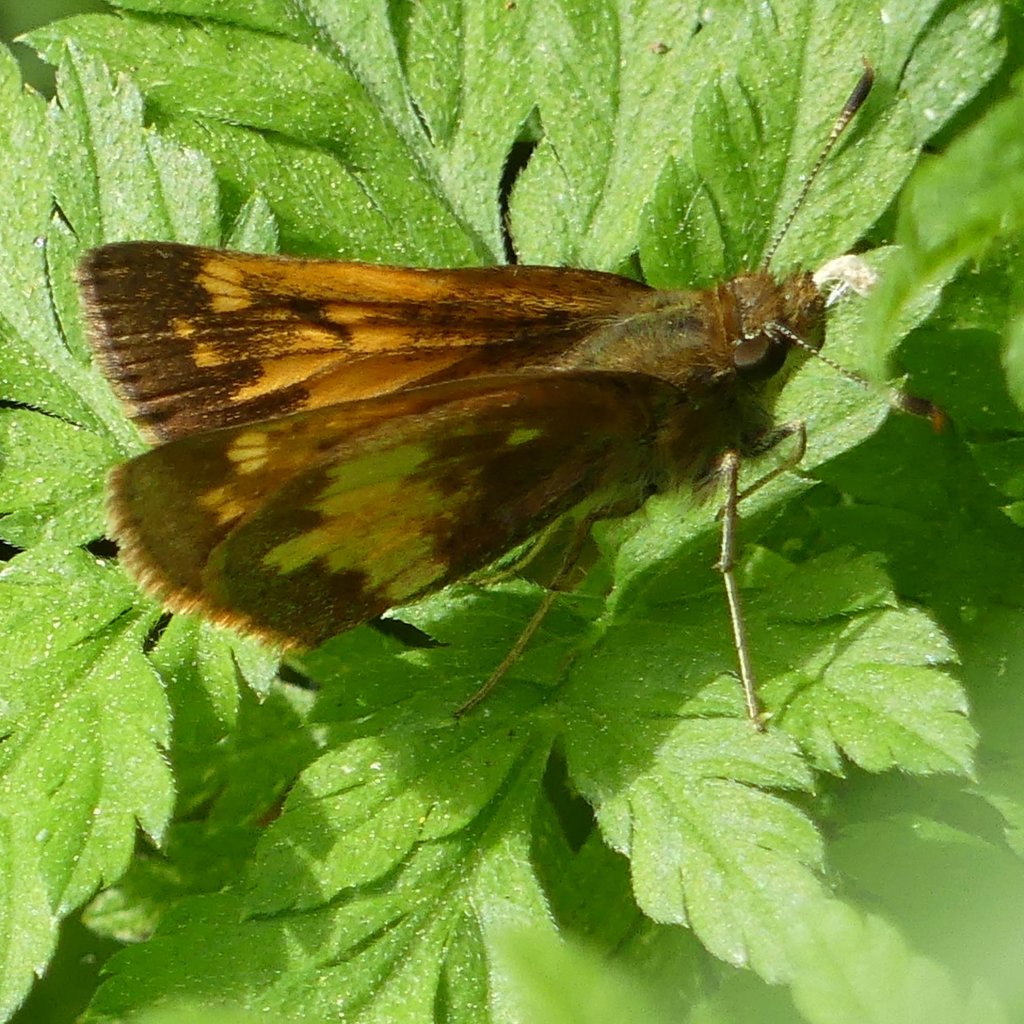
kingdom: Animalia
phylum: Arthropoda
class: Insecta
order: Lepidoptera
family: Hesperiidae
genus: Lon
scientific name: Lon hobomok
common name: Hobomok Skipper
